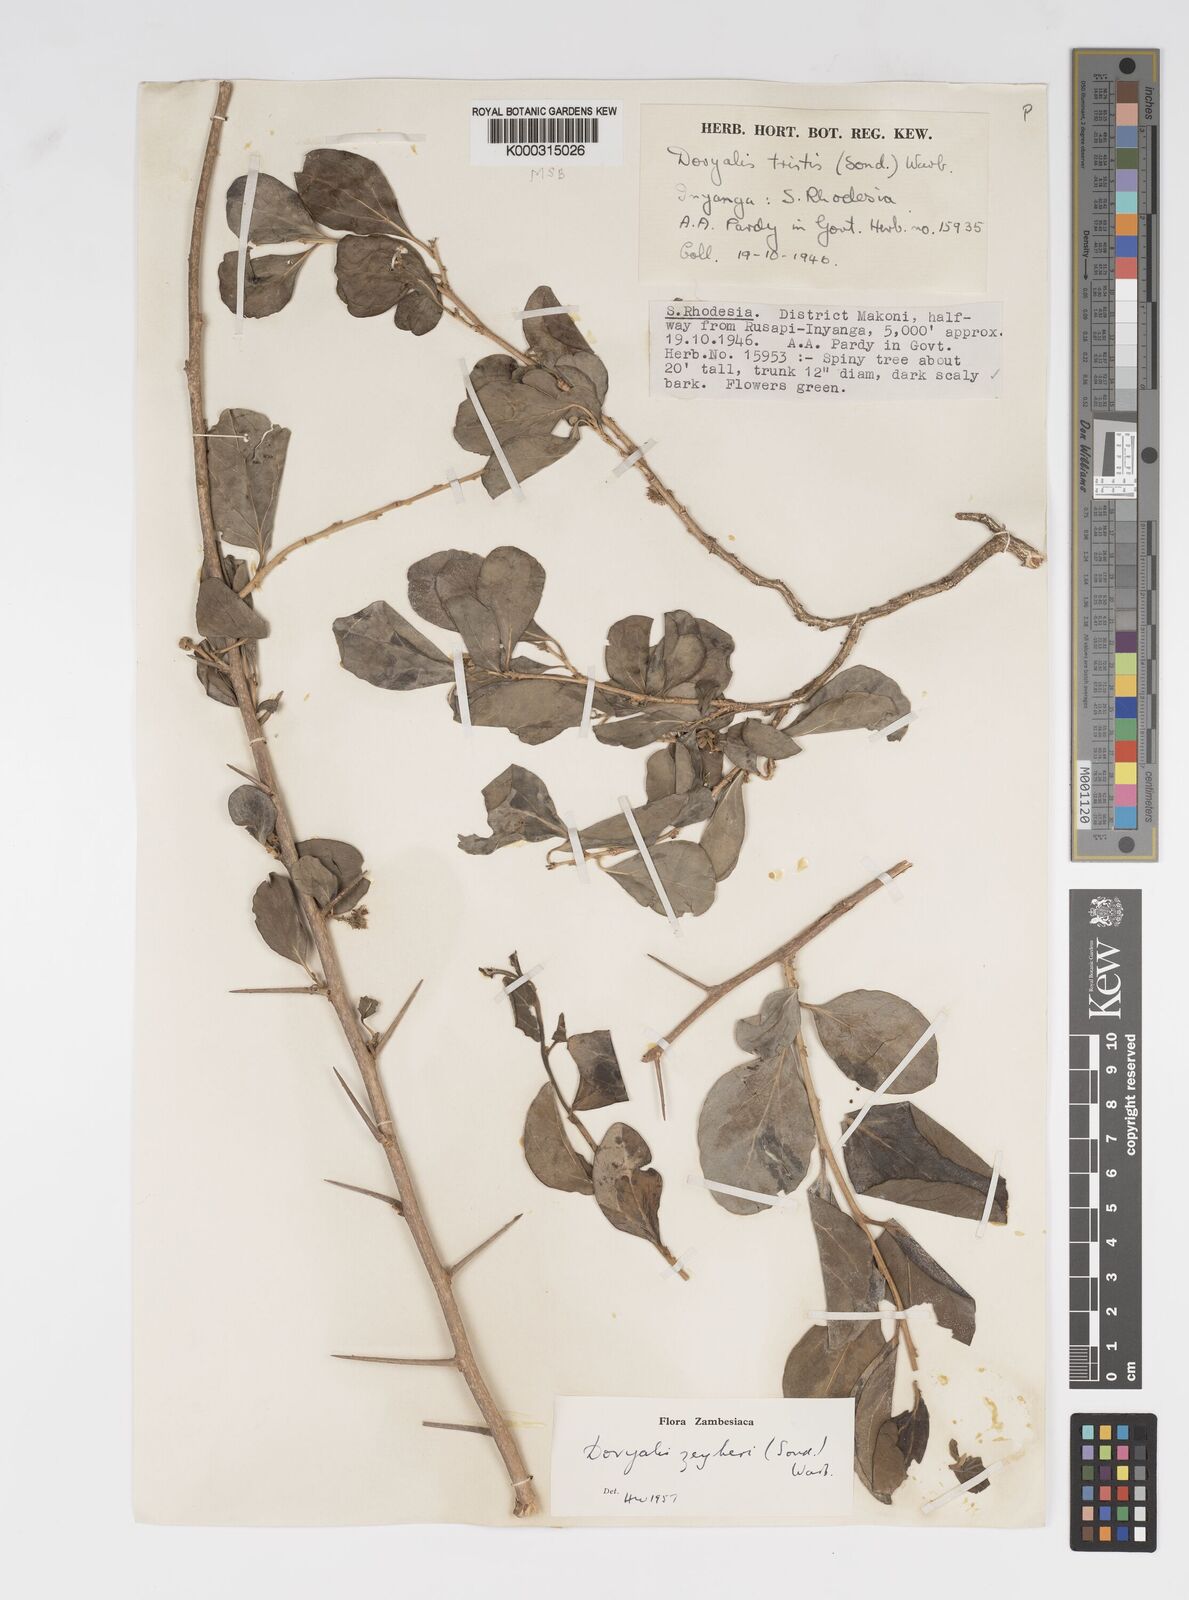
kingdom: Plantae
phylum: Tracheophyta
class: Magnoliopsida
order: Malpighiales
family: Salicaceae
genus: Dovyalis
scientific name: Dovyalis zeyheri
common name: Apricot sourberry
